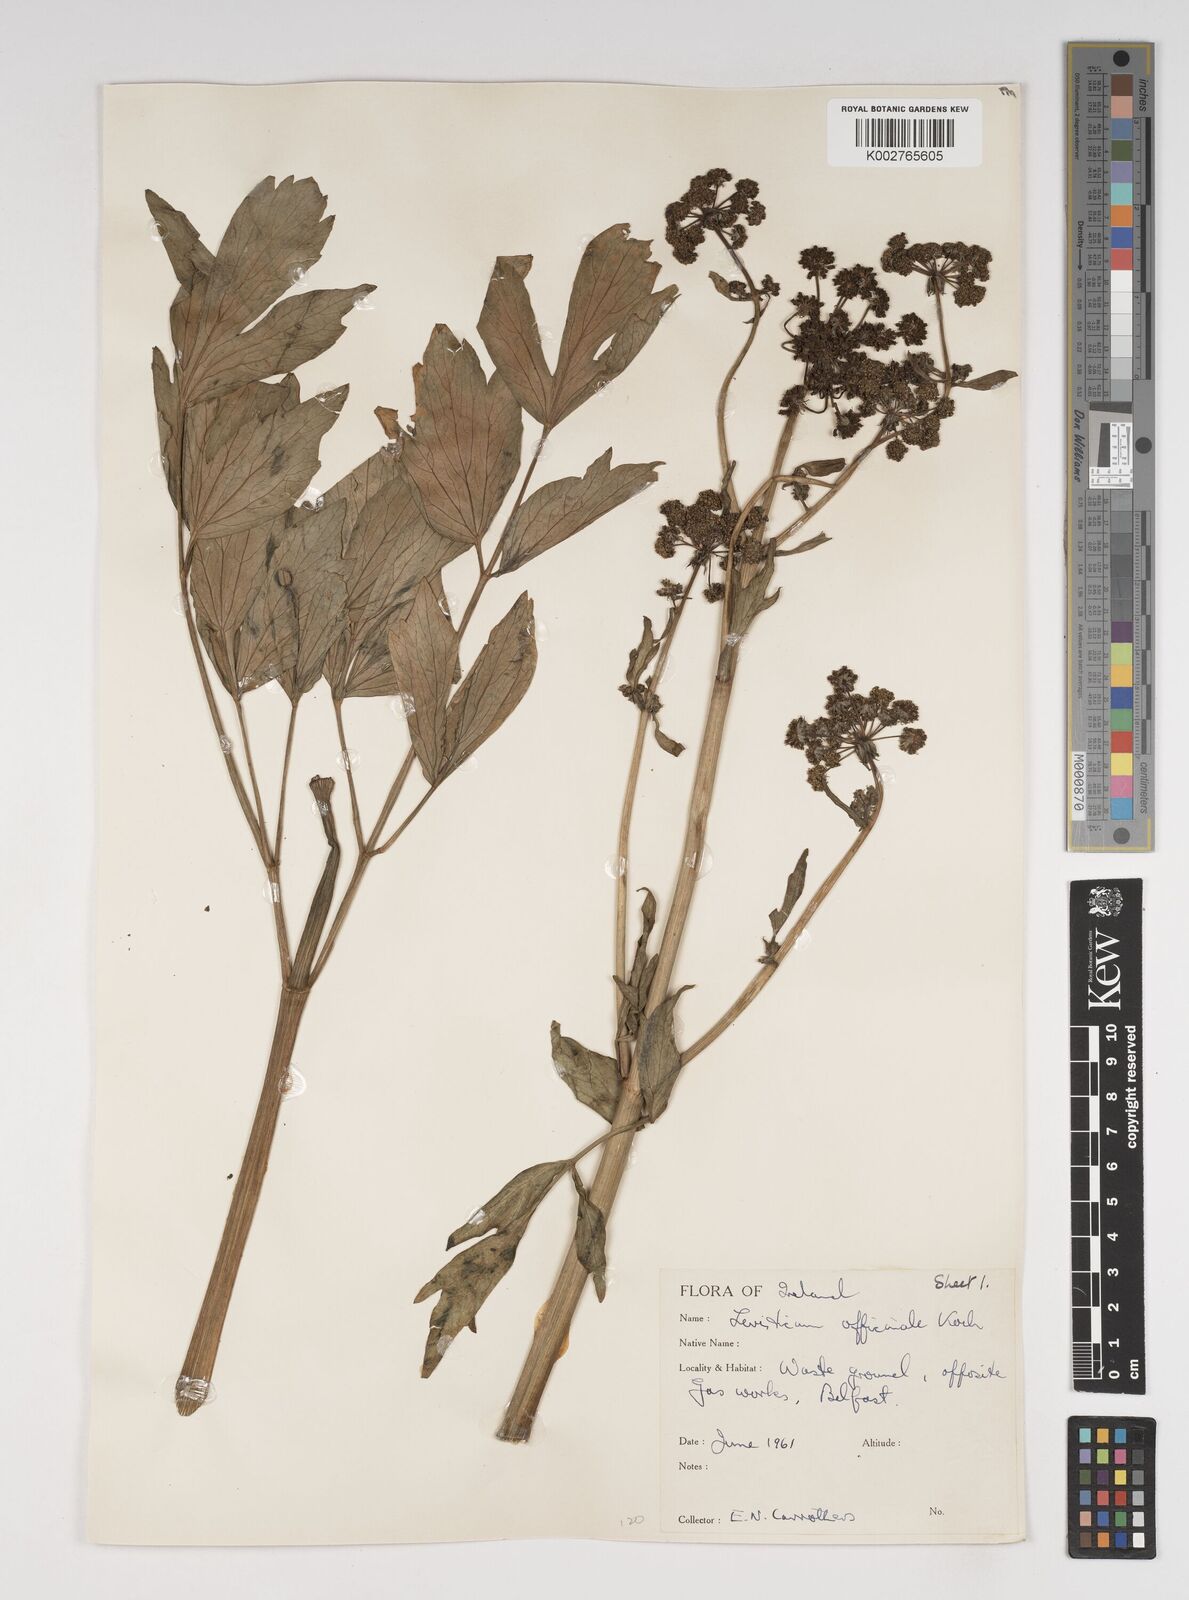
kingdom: Plantae
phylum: Tracheophyta
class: Magnoliopsida
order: Apiales
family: Apiaceae
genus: Levisticum
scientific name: Levisticum officinale
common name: Lovage
